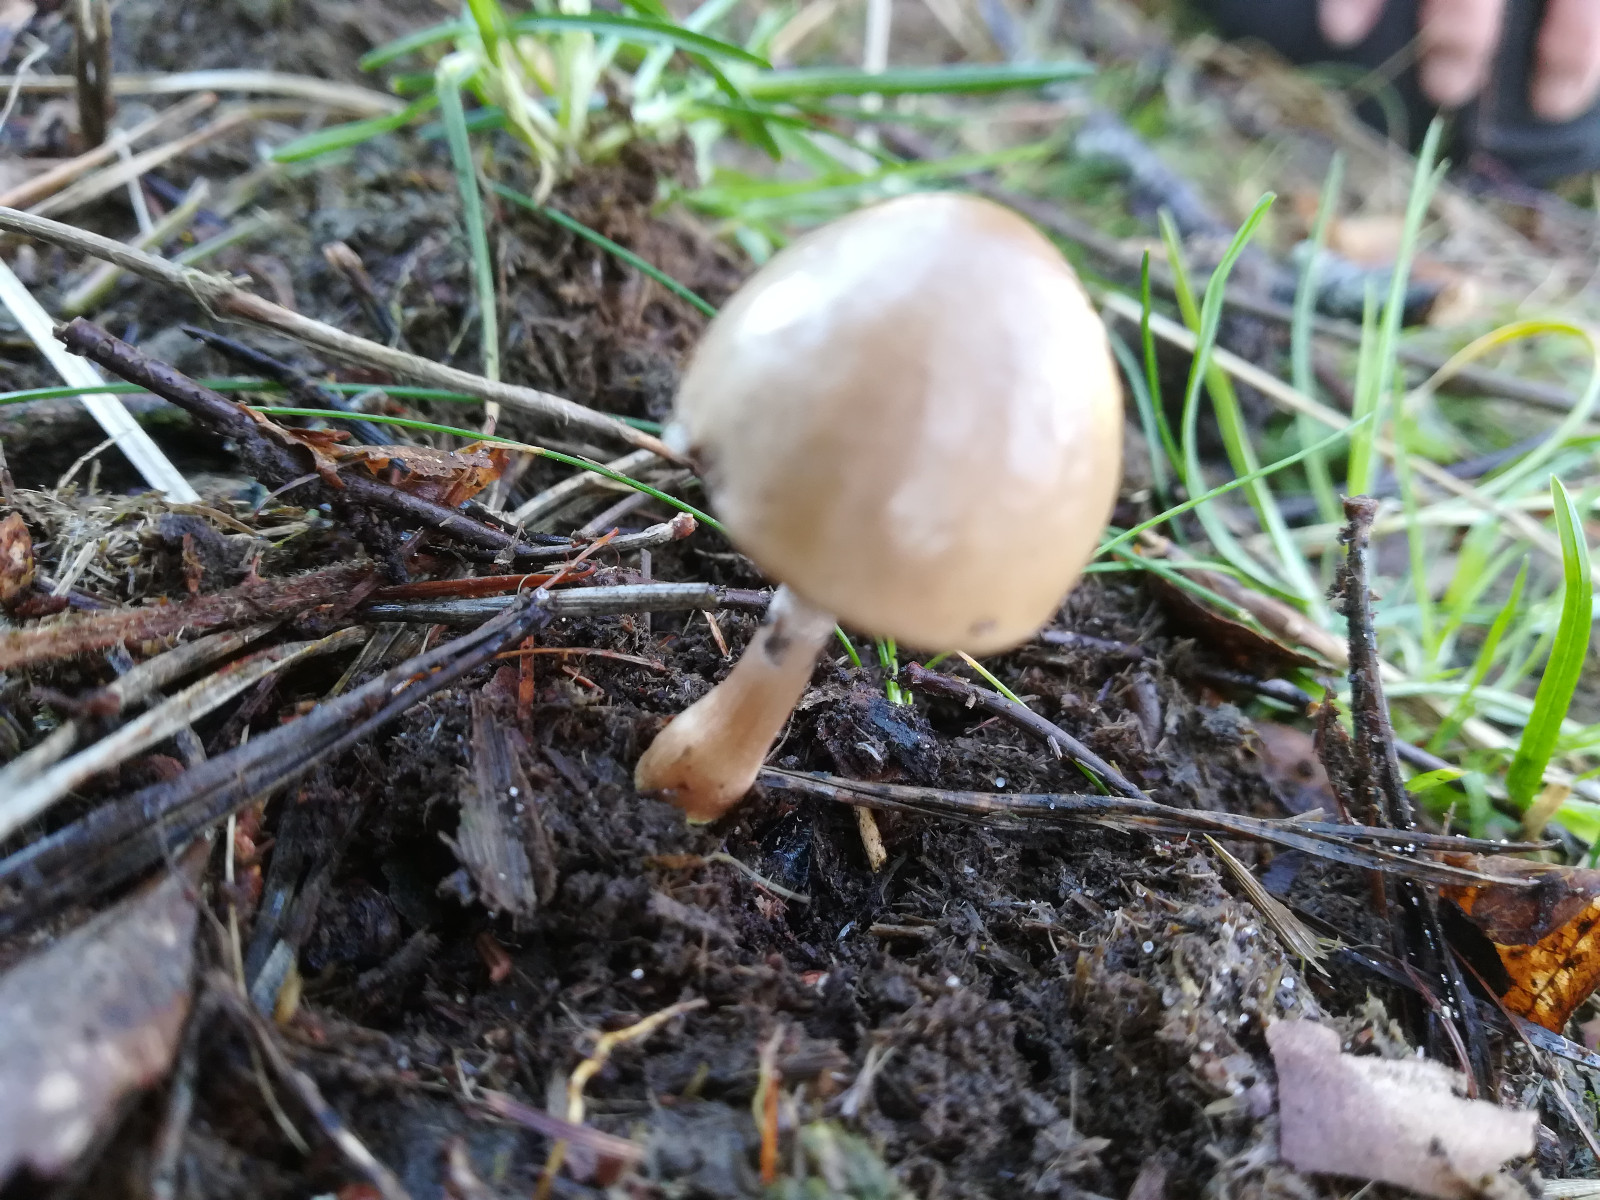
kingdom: Fungi
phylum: Basidiomycota
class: Agaricomycetes
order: Agaricales
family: Bolbitiaceae
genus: Panaeolus
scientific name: Panaeolus semiovatus
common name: ring-glanshat
